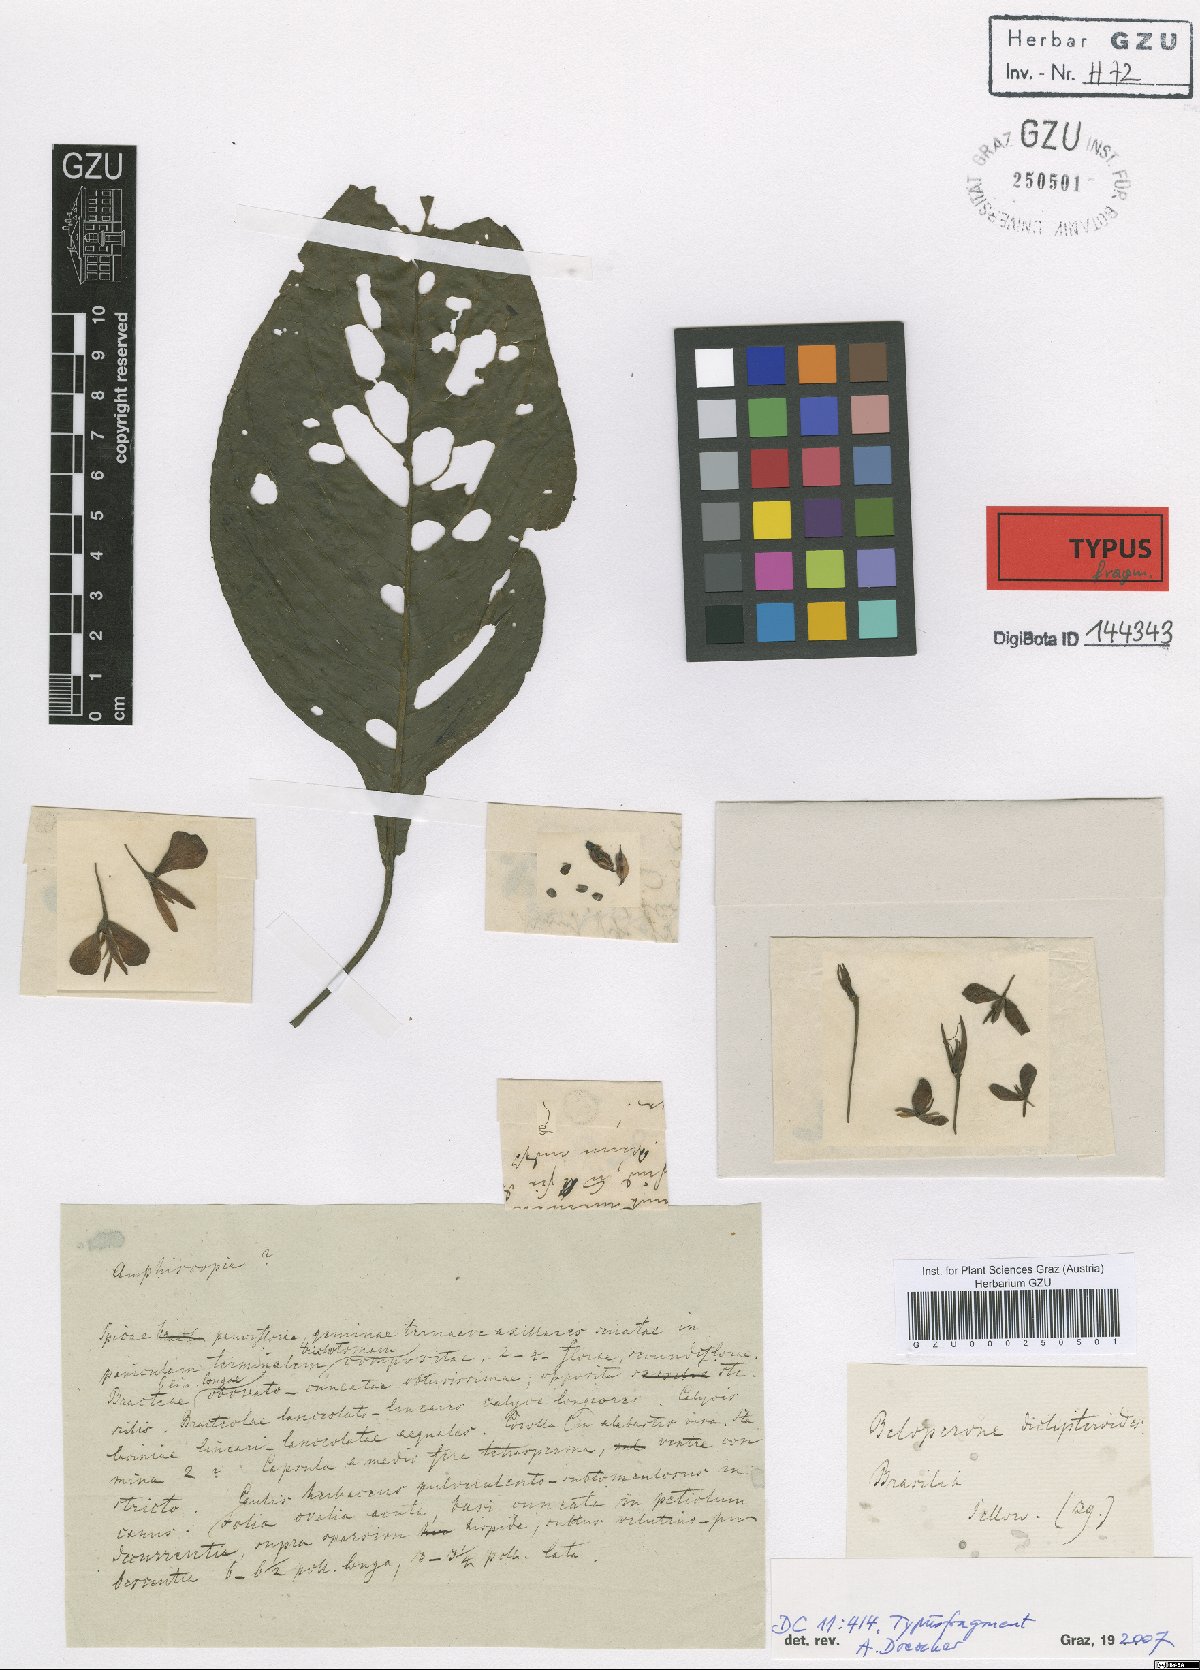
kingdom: Plantae
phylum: Tracheophyta
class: Magnoliopsida
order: Lamiales
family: Acanthaceae
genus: Justicia
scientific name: Justicia sellowiana
